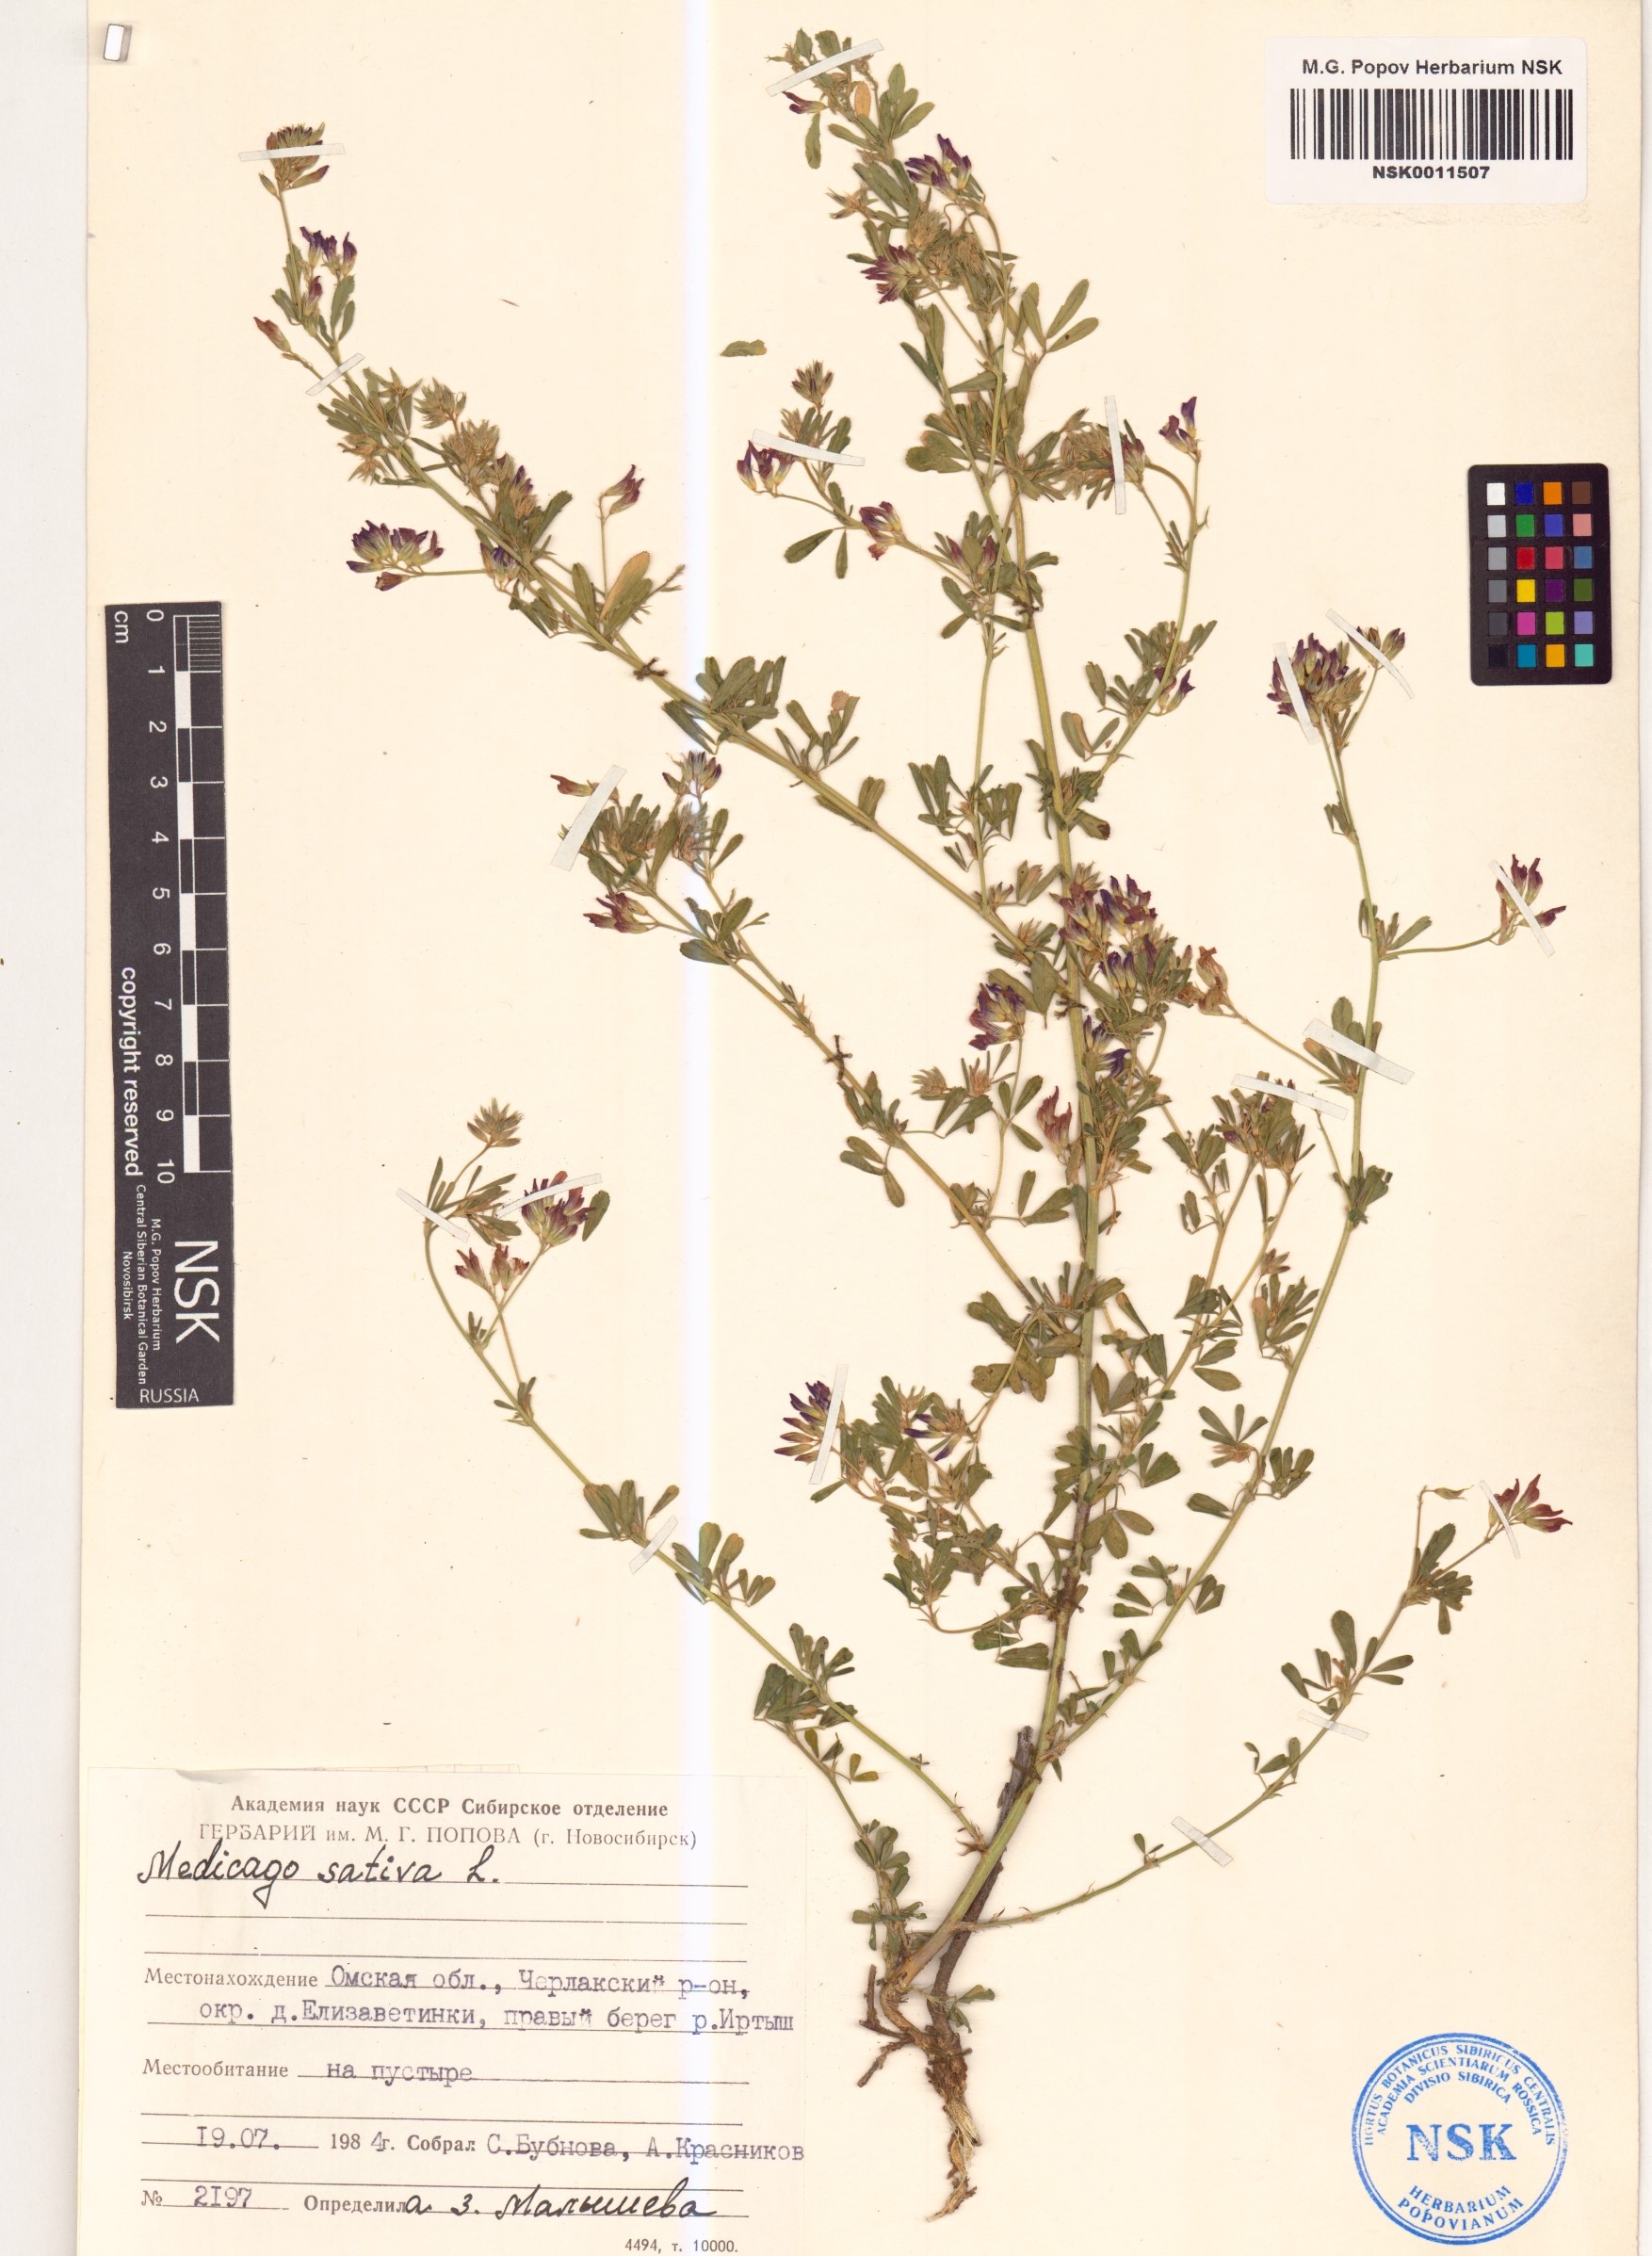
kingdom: Plantae
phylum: Tracheophyta
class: Magnoliopsida
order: Fabales
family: Fabaceae
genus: Medicago
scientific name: Medicago sativa
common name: Alfalfa
